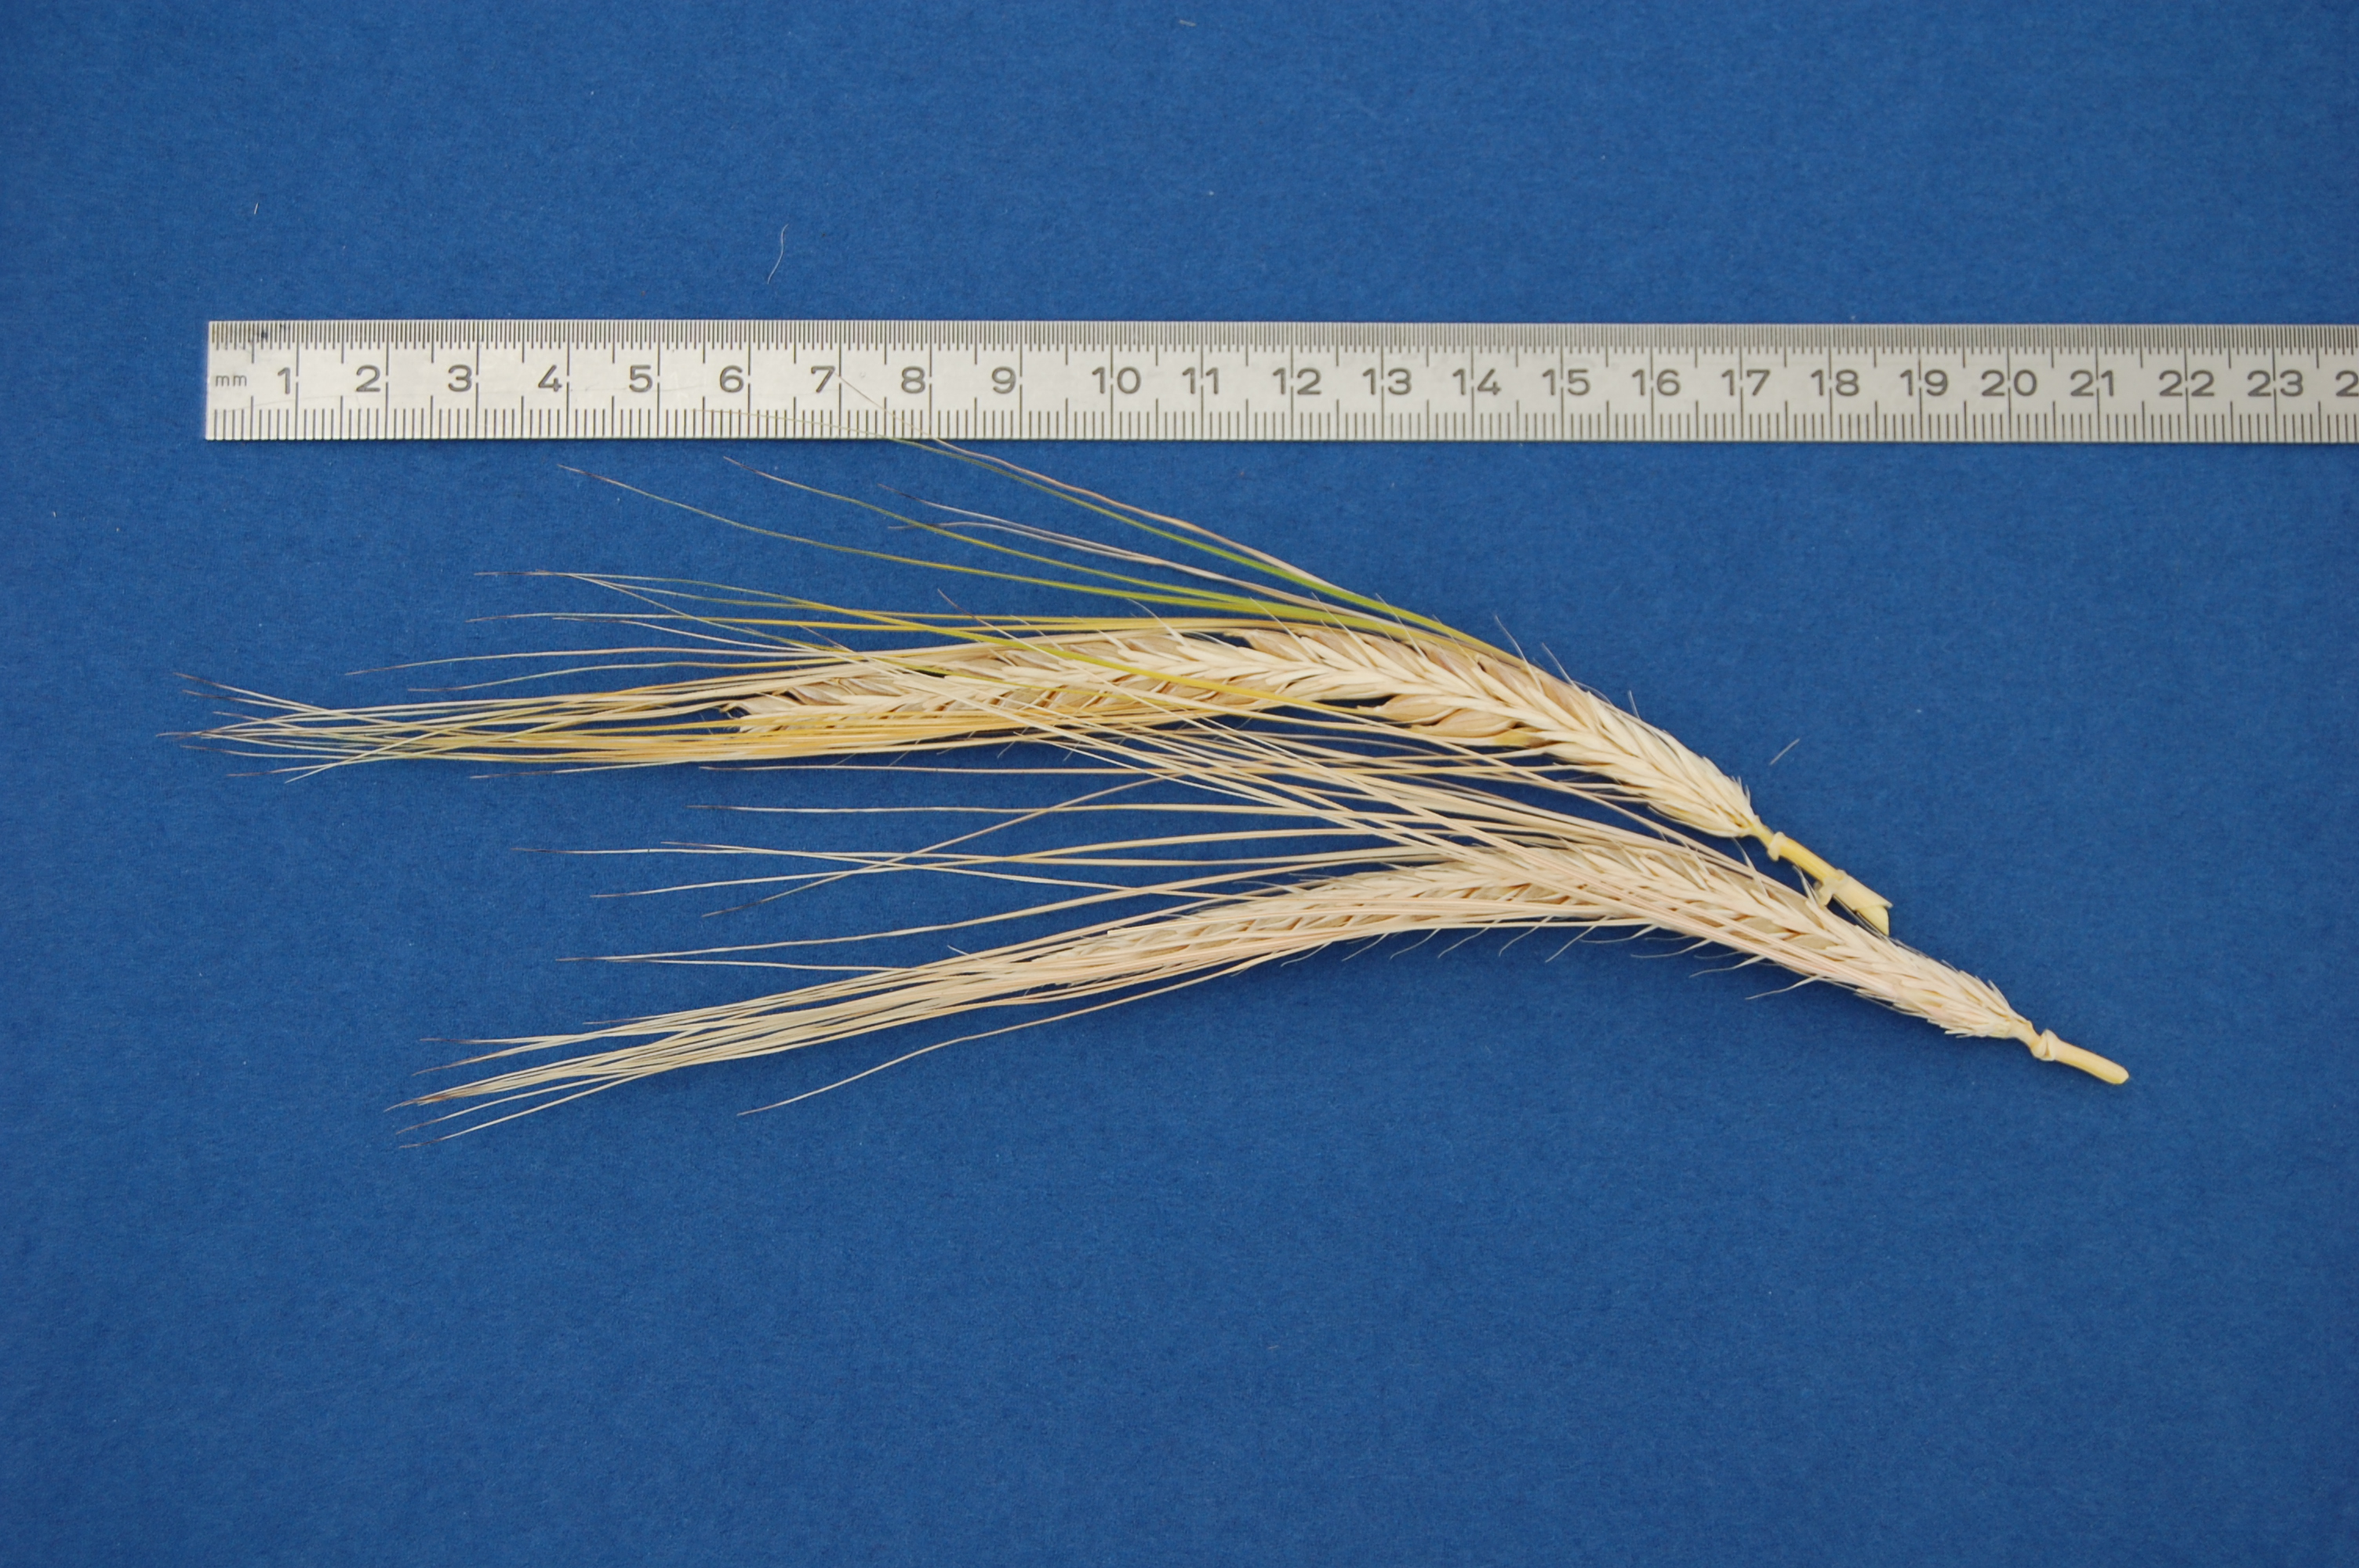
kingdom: Plantae
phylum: Tracheophyta
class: Liliopsida
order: Poales
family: Poaceae
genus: Hordeum
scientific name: Hordeum vulgare
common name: Common barley
